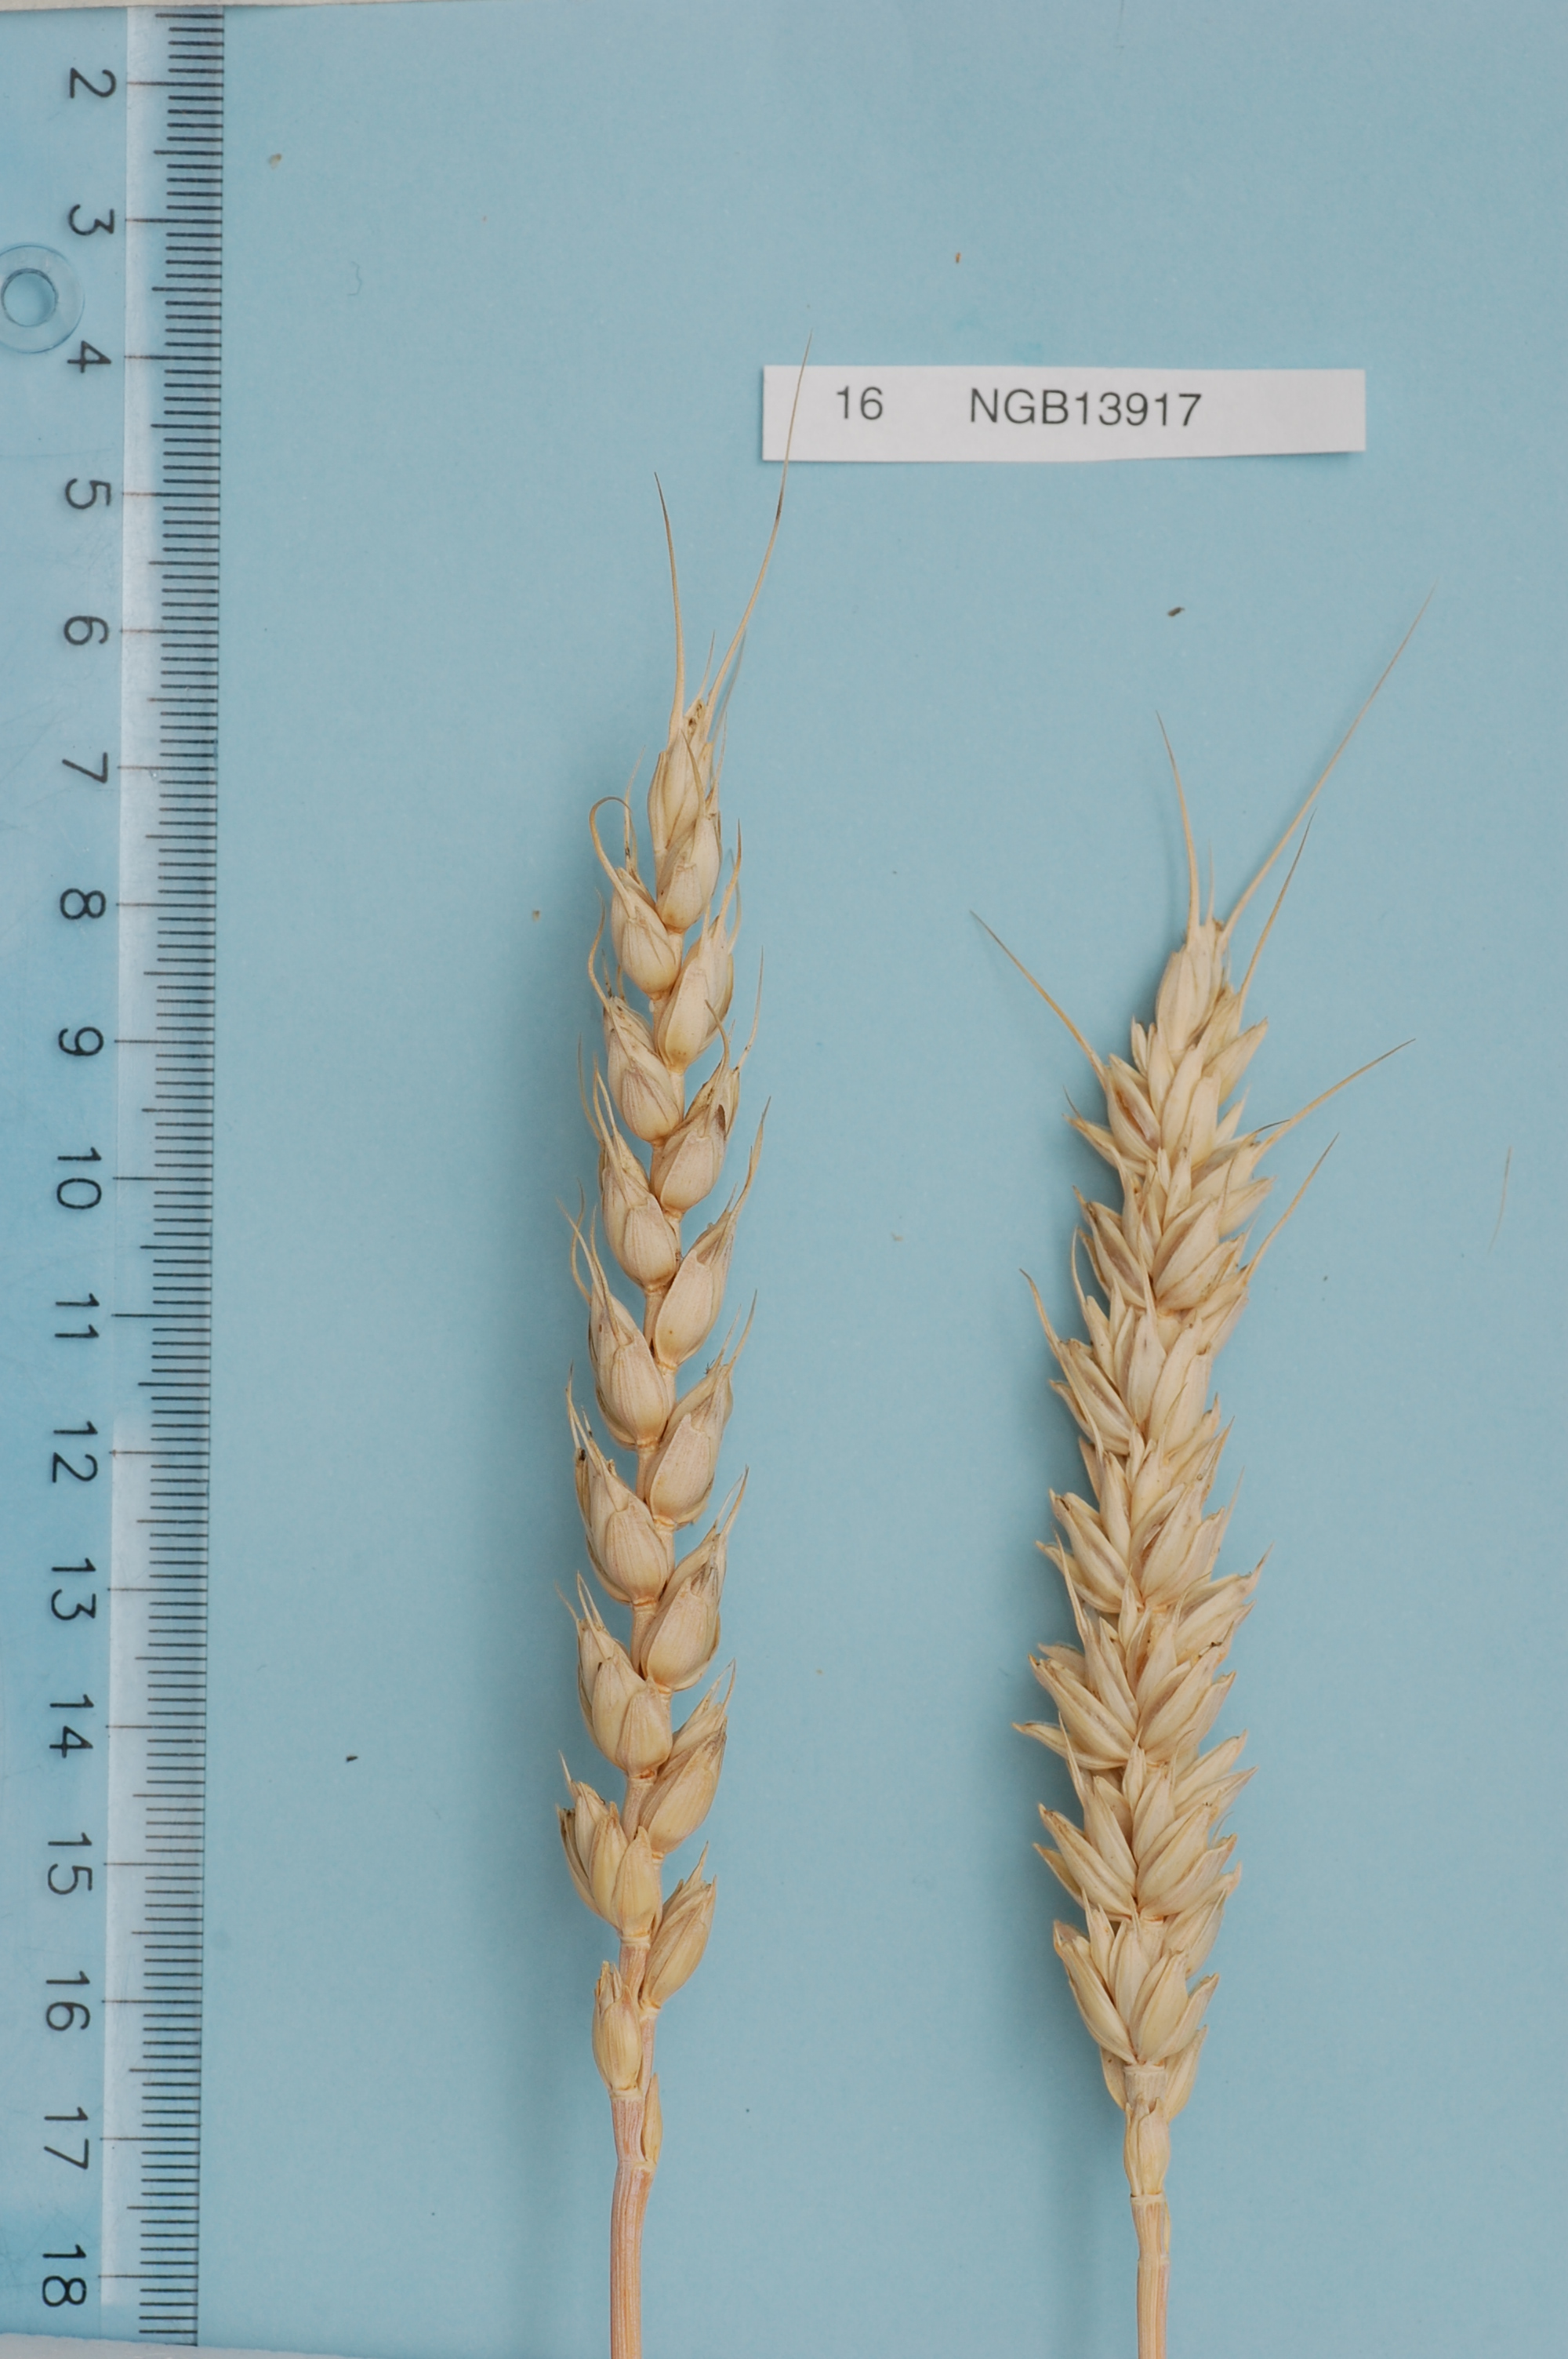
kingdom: Plantae
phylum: Tracheophyta
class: Liliopsida
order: Poales
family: Poaceae
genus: Triticum
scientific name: Triticum aestivum
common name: Common wheat
